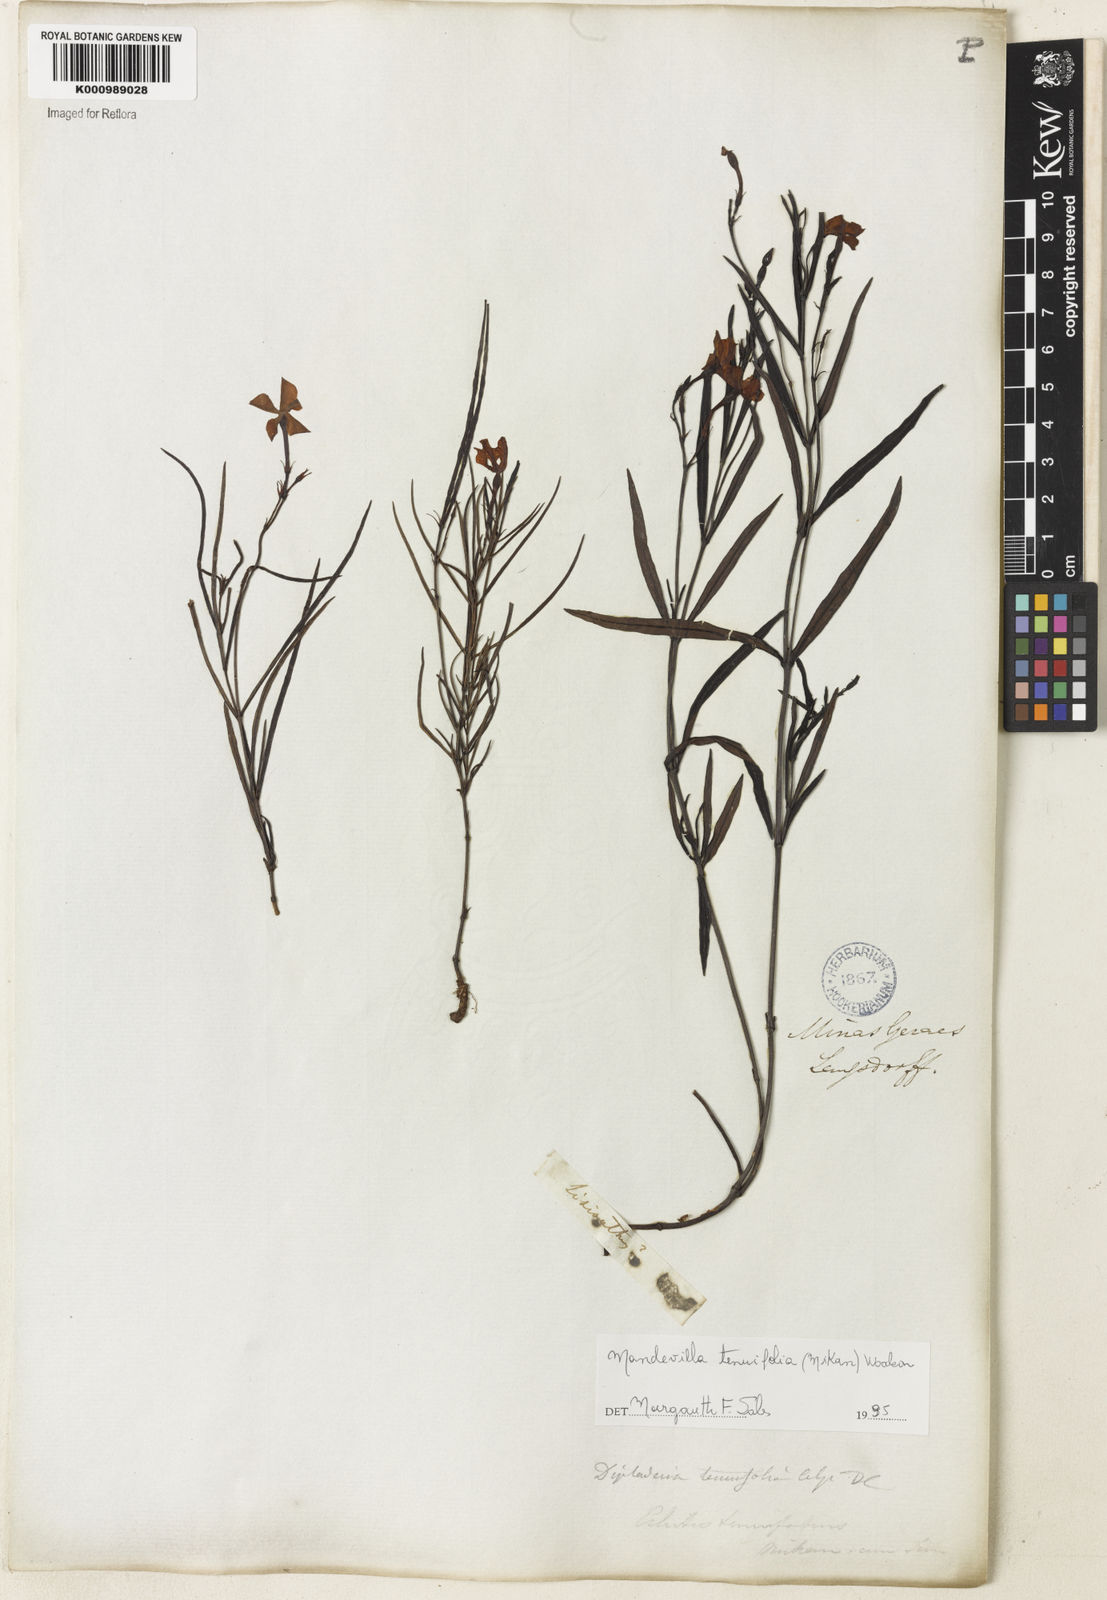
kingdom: Plantae
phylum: Tracheophyta
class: Magnoliopsida
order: Gentianales
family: Apocynaceae
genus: Mandevilla
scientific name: Mandevilla tenuifolia
